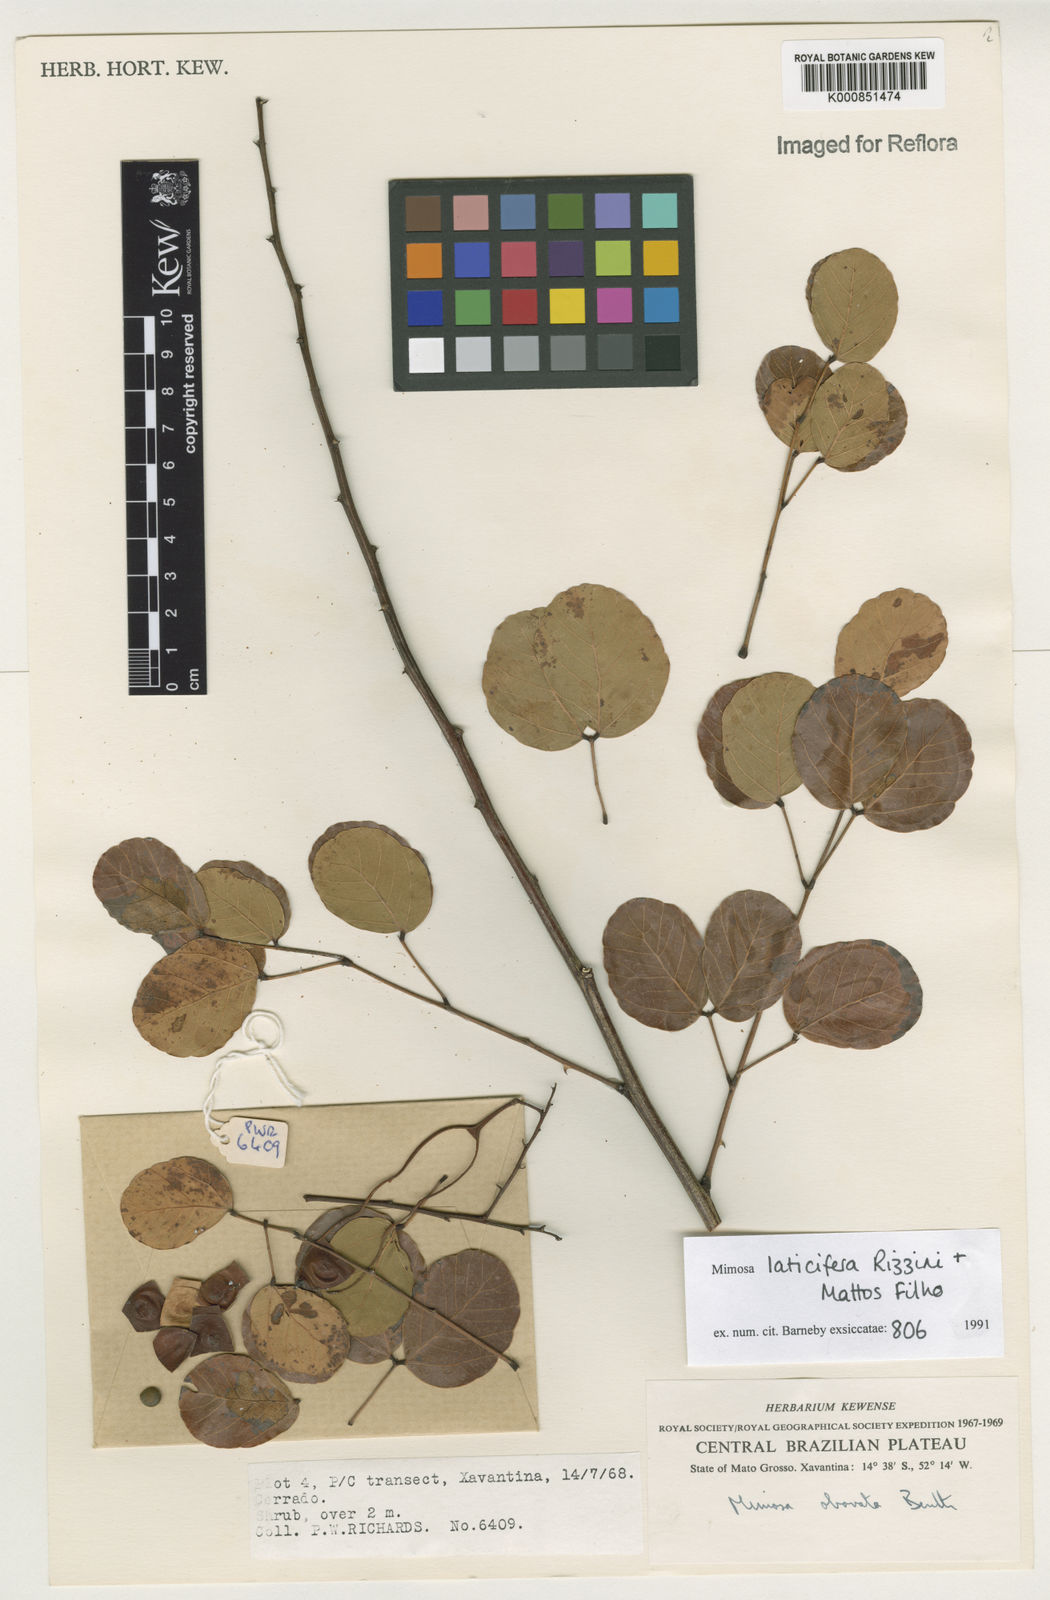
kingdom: Plantae
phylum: Tracheophyta
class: Magnoliopsida
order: Fabales
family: Fabaceae
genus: Mimosa
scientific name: Mimosa laticifera
